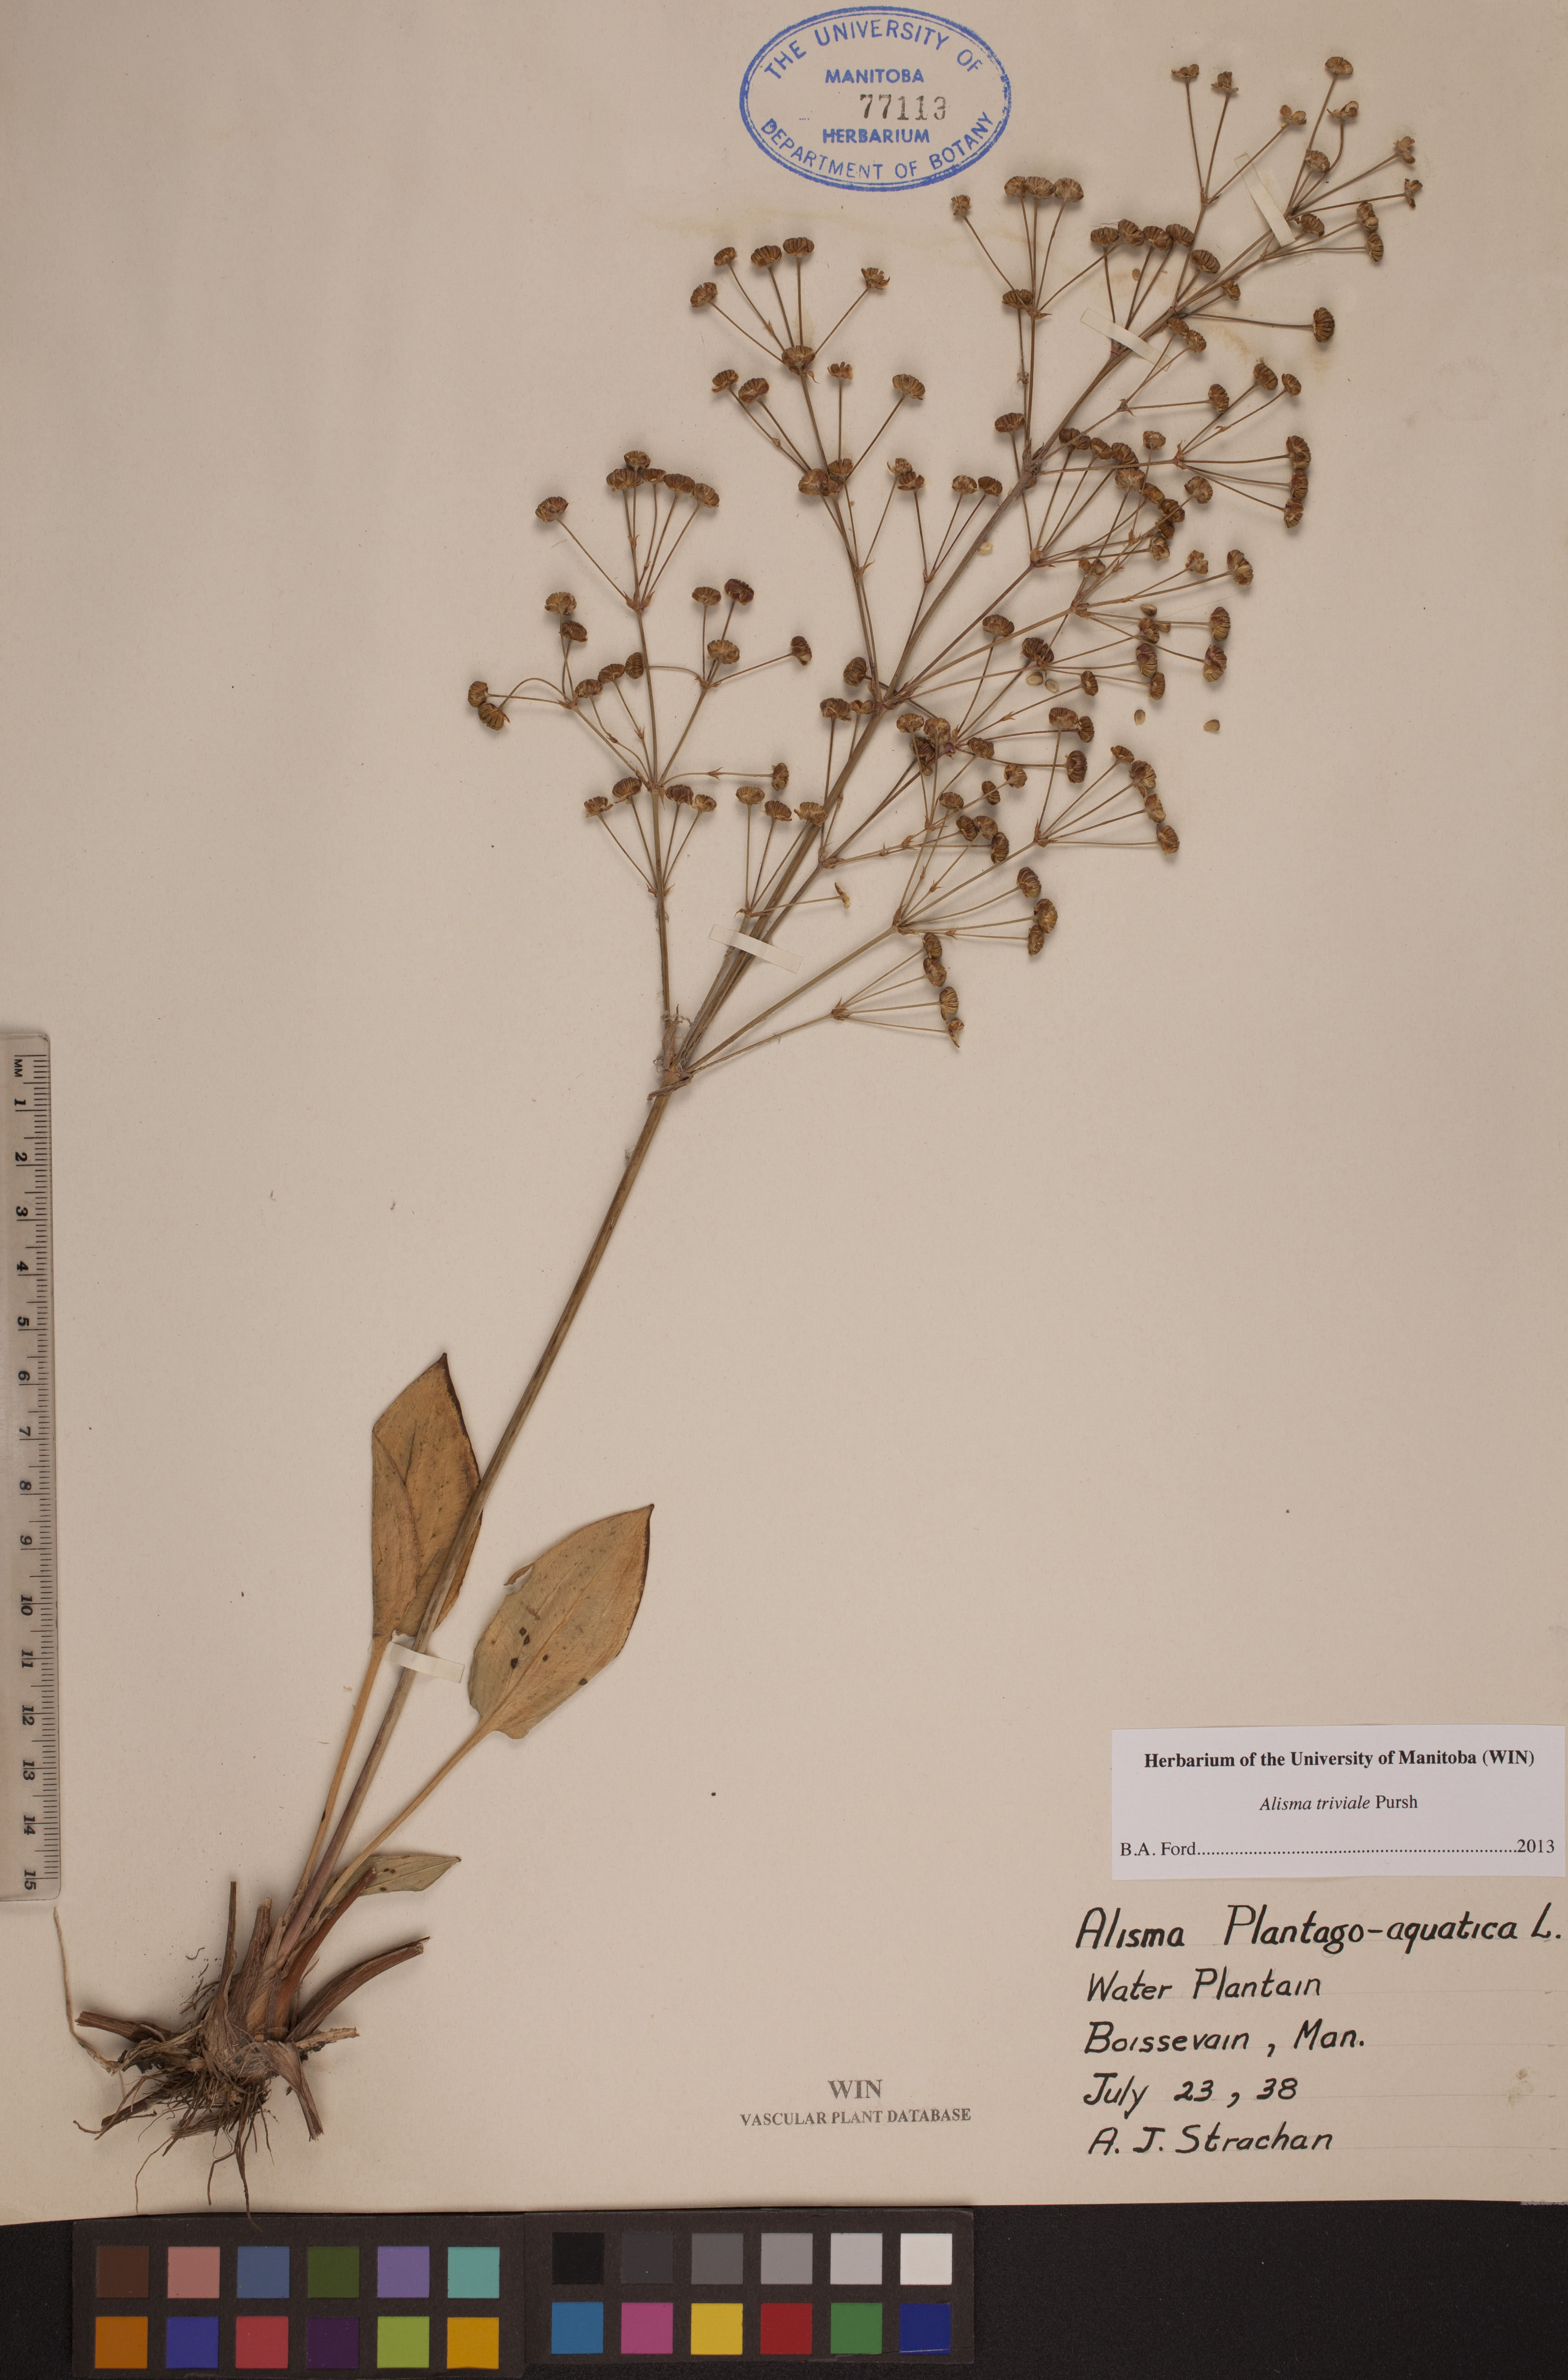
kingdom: Plantae
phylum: Tracheophyta
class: Liliopsida
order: Alismatales
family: Alismataceae
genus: Alisma
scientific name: Alisma triviale
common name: Northern water-plantain
